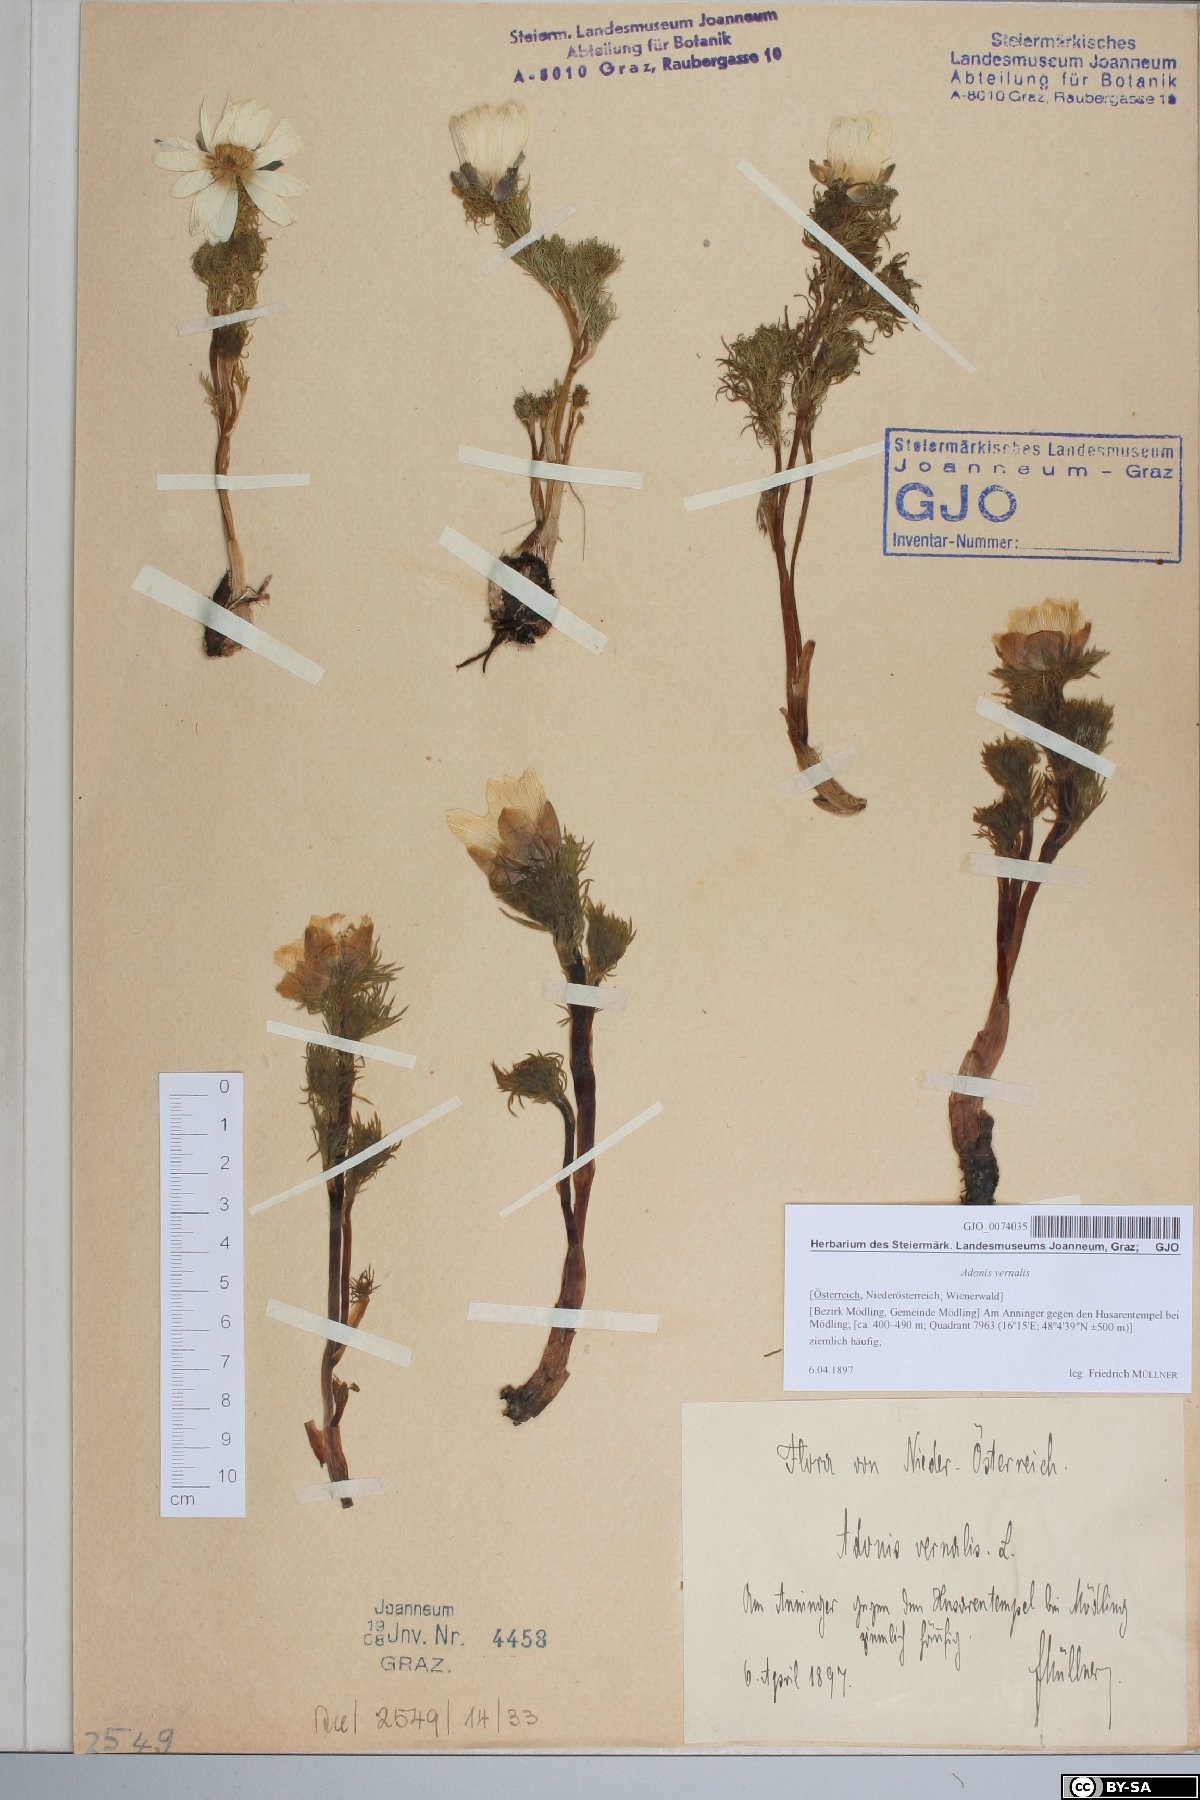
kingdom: Plantae
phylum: Tracheophyta
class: Magnoliopsida
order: Ranunculales
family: Ranunculaceae
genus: Adonis
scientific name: Adonis vernalis
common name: Yellow pheasants-eye
